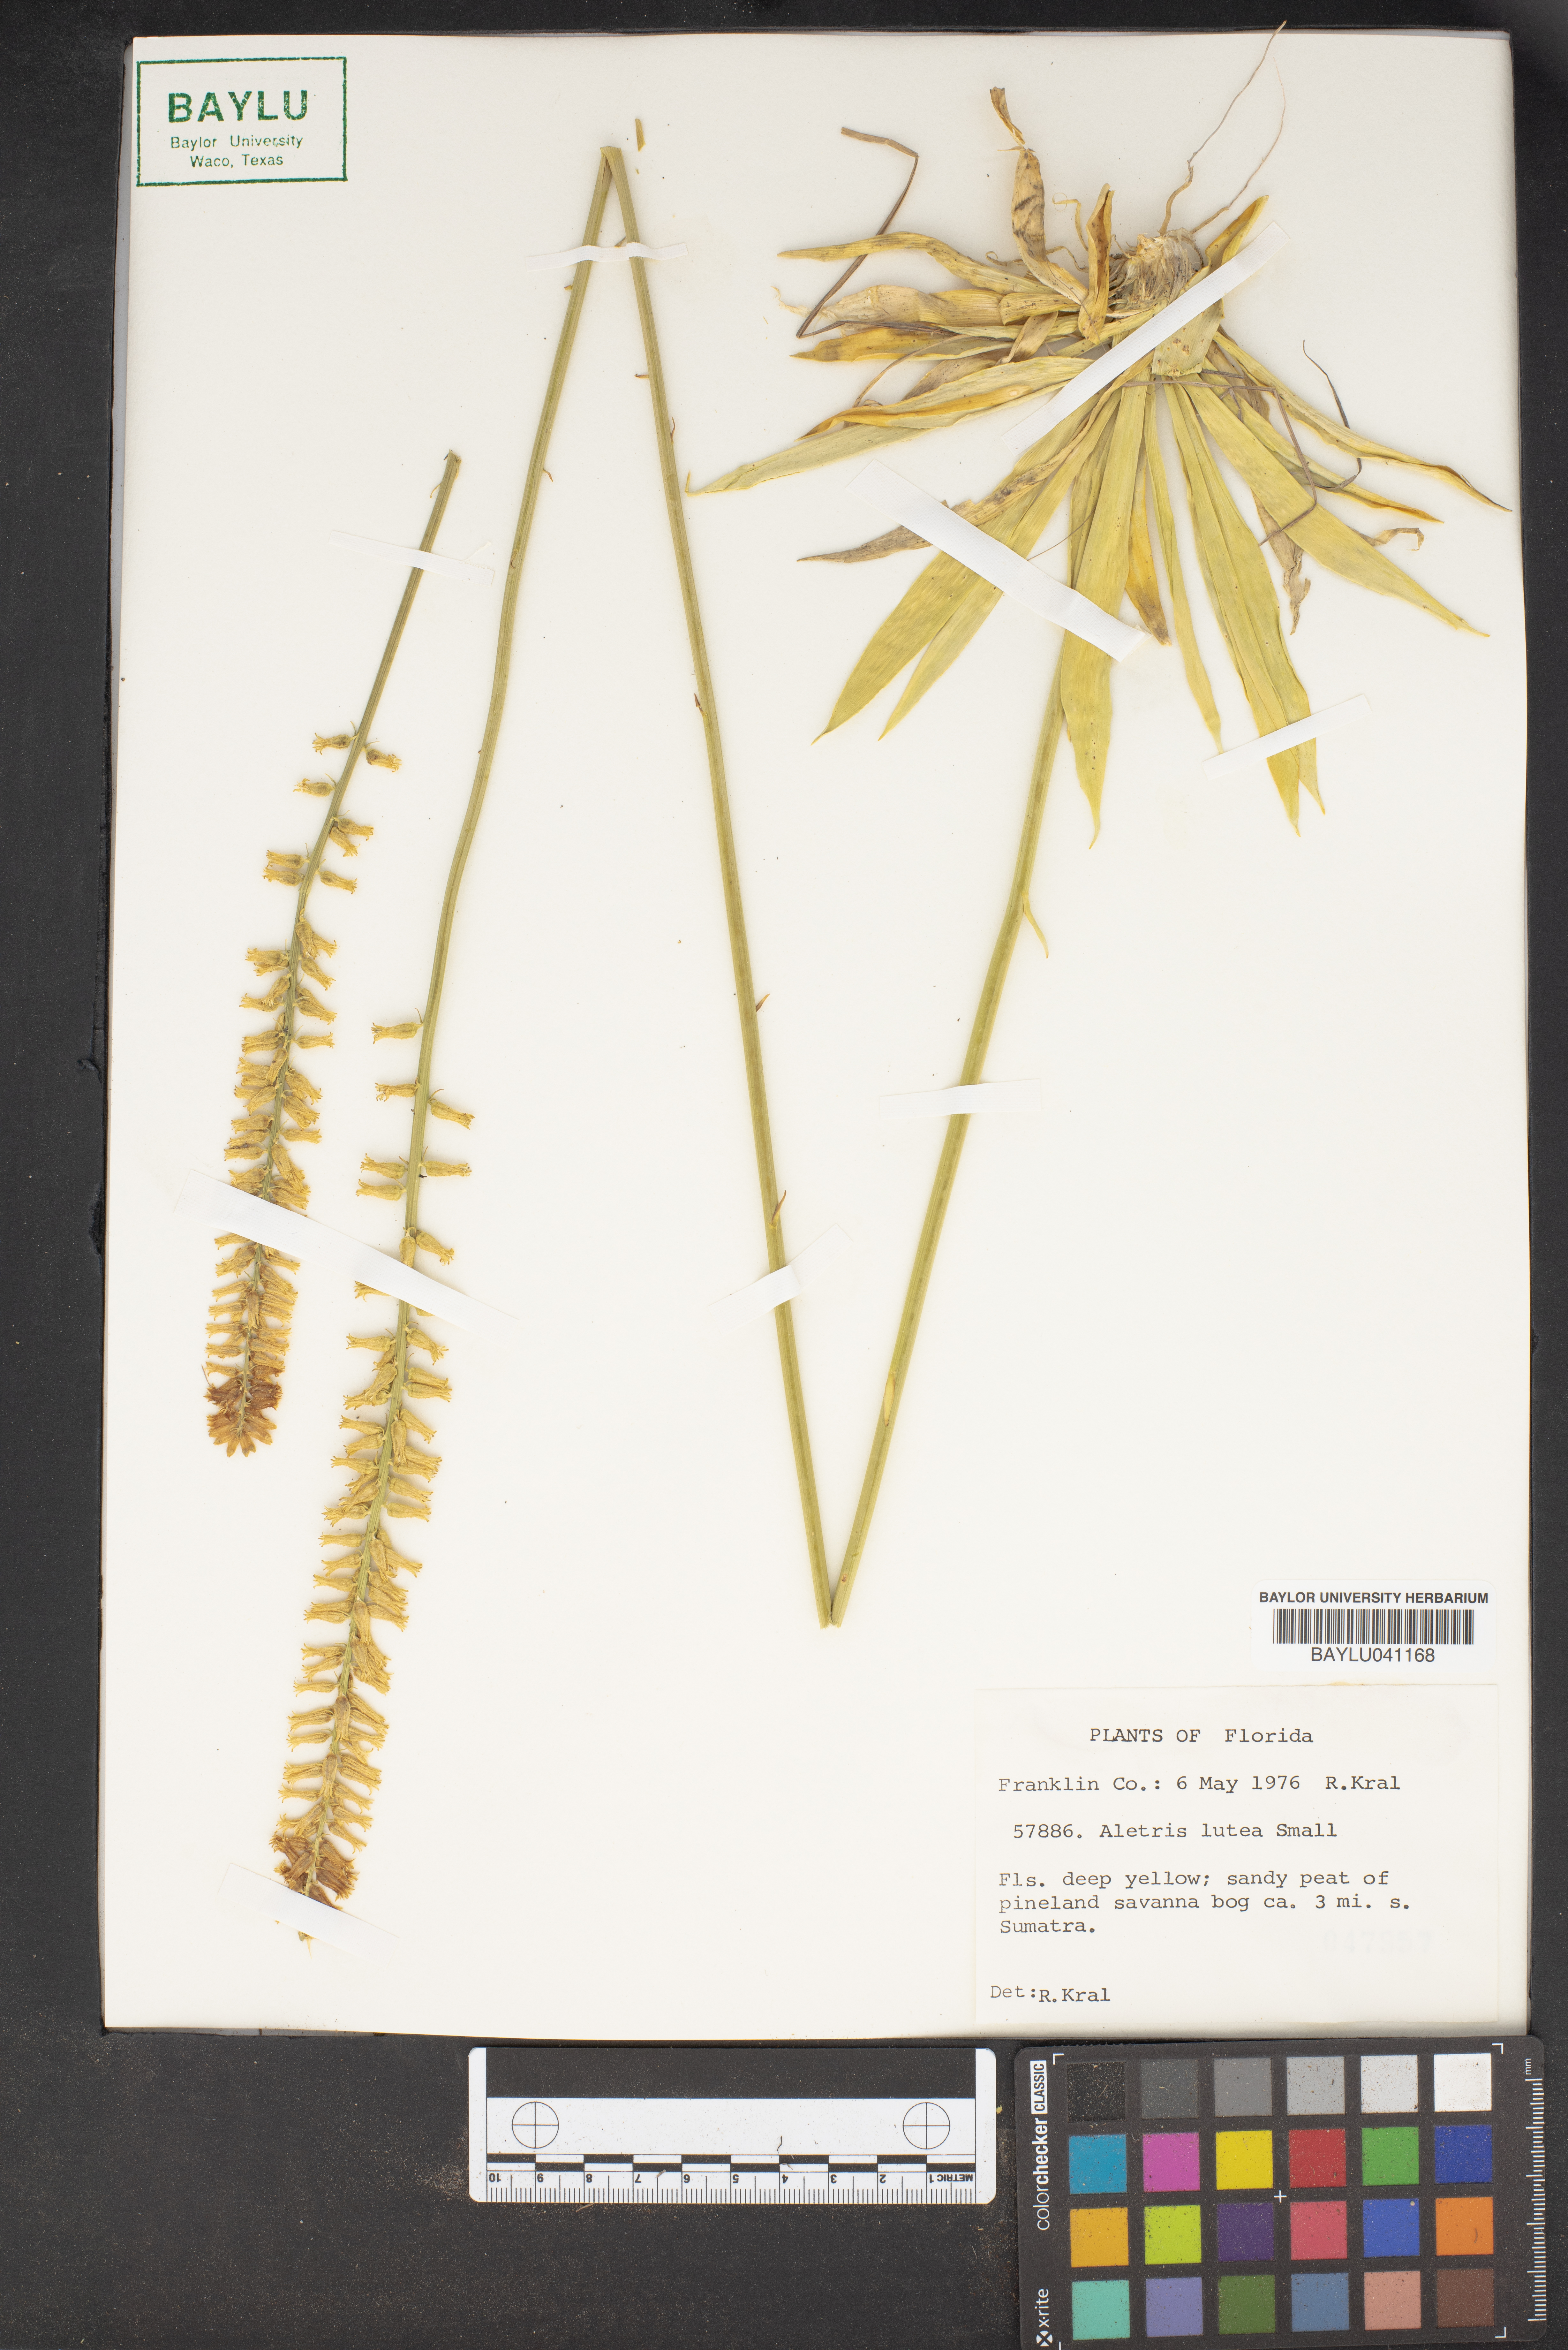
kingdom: Plantae
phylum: Tracheophyta
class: Liliopsida
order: Dioscoreales
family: Nartheciaceae
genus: Aletris
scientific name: Aletris lutea
